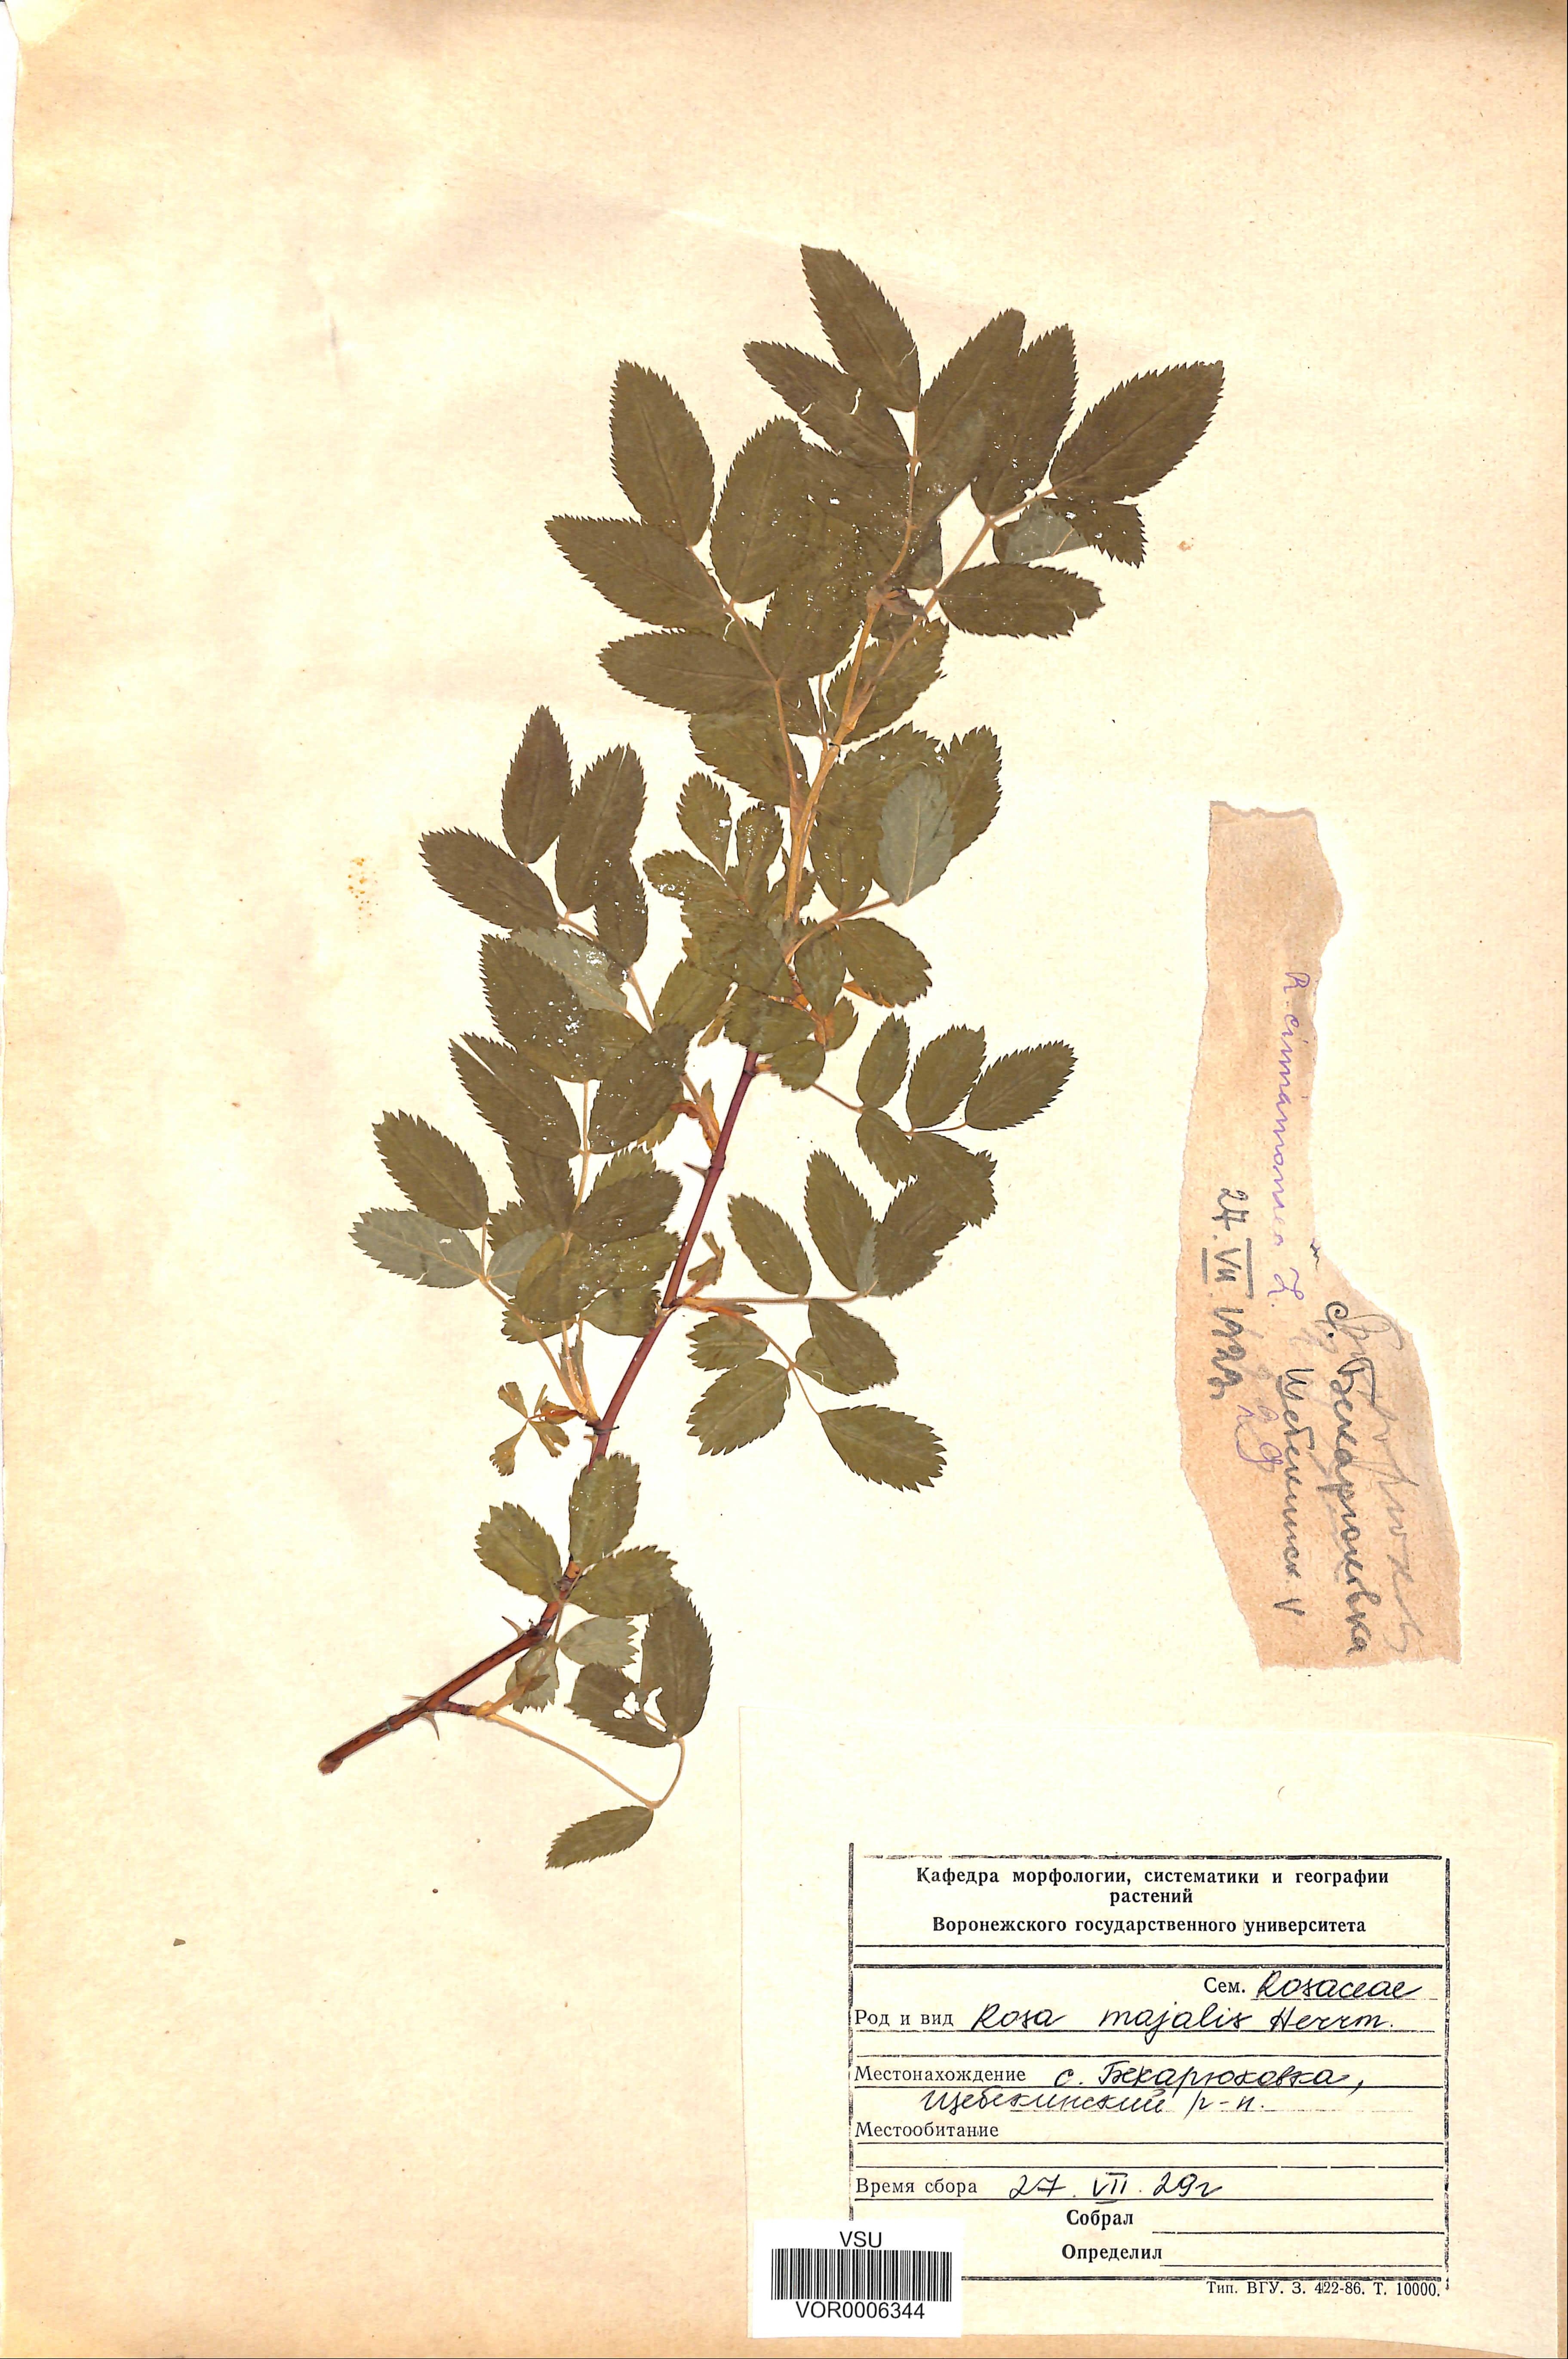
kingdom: Plantae
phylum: Tracheophyta
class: Magnoliopsida
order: Rosales
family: Rosaceae
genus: Rosa
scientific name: Rosa majalis
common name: Cinnamon rose
